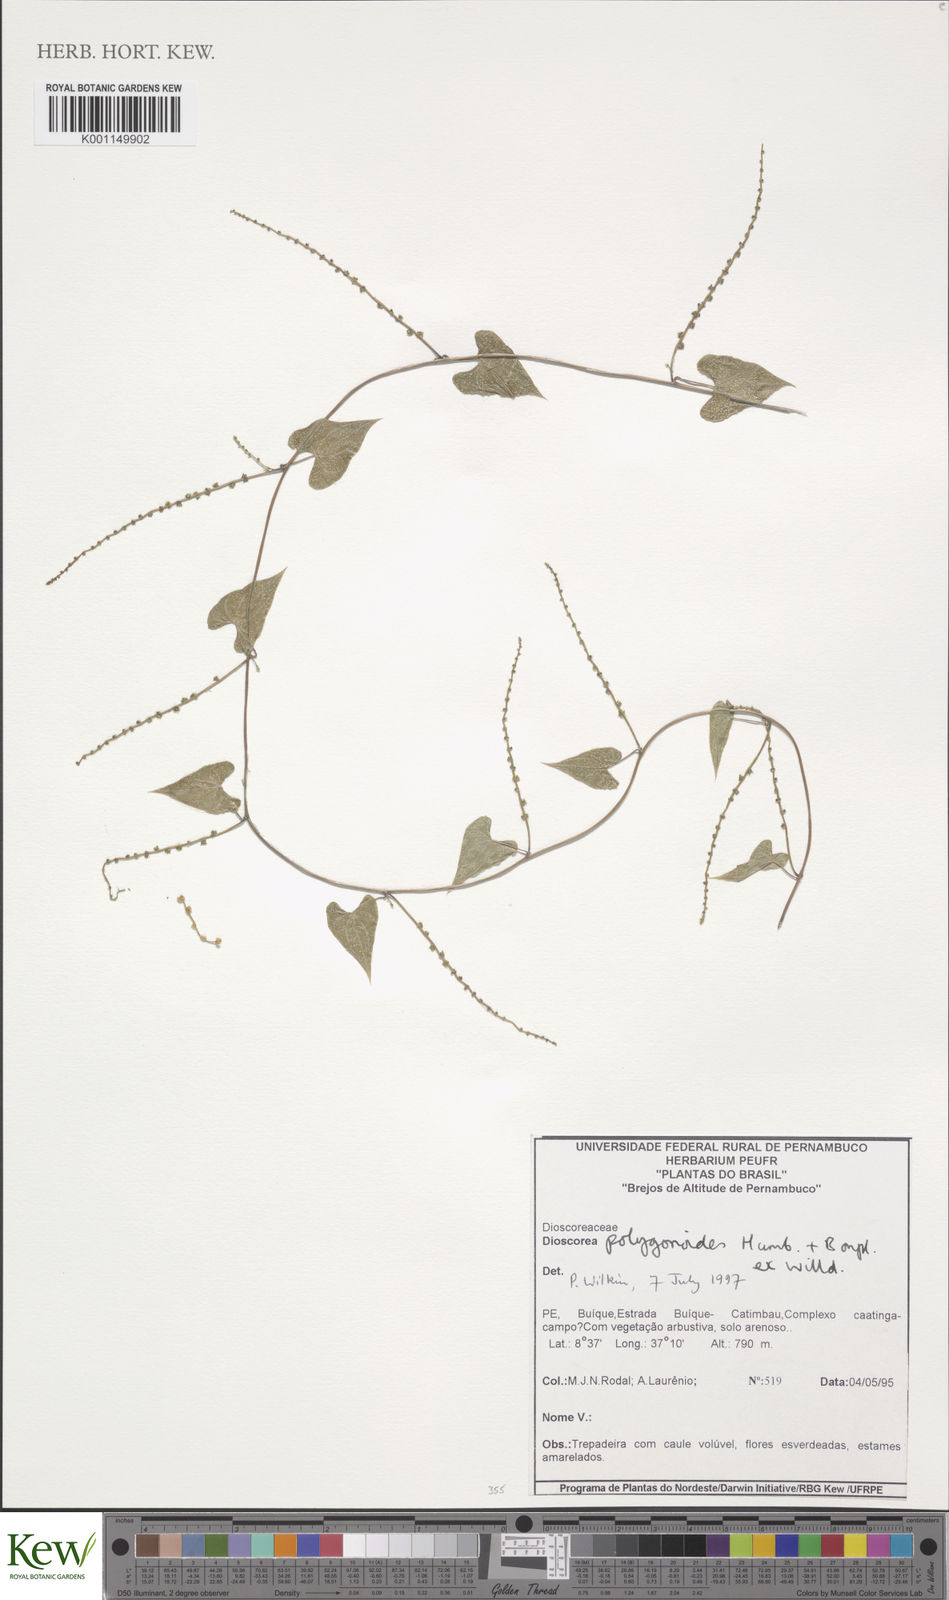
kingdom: Plantae
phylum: Tracheophyta
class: Liliopsida
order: Dioscoreales
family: Dioscoreaceae
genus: Dioscorea
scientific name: Dioscorea martiana
